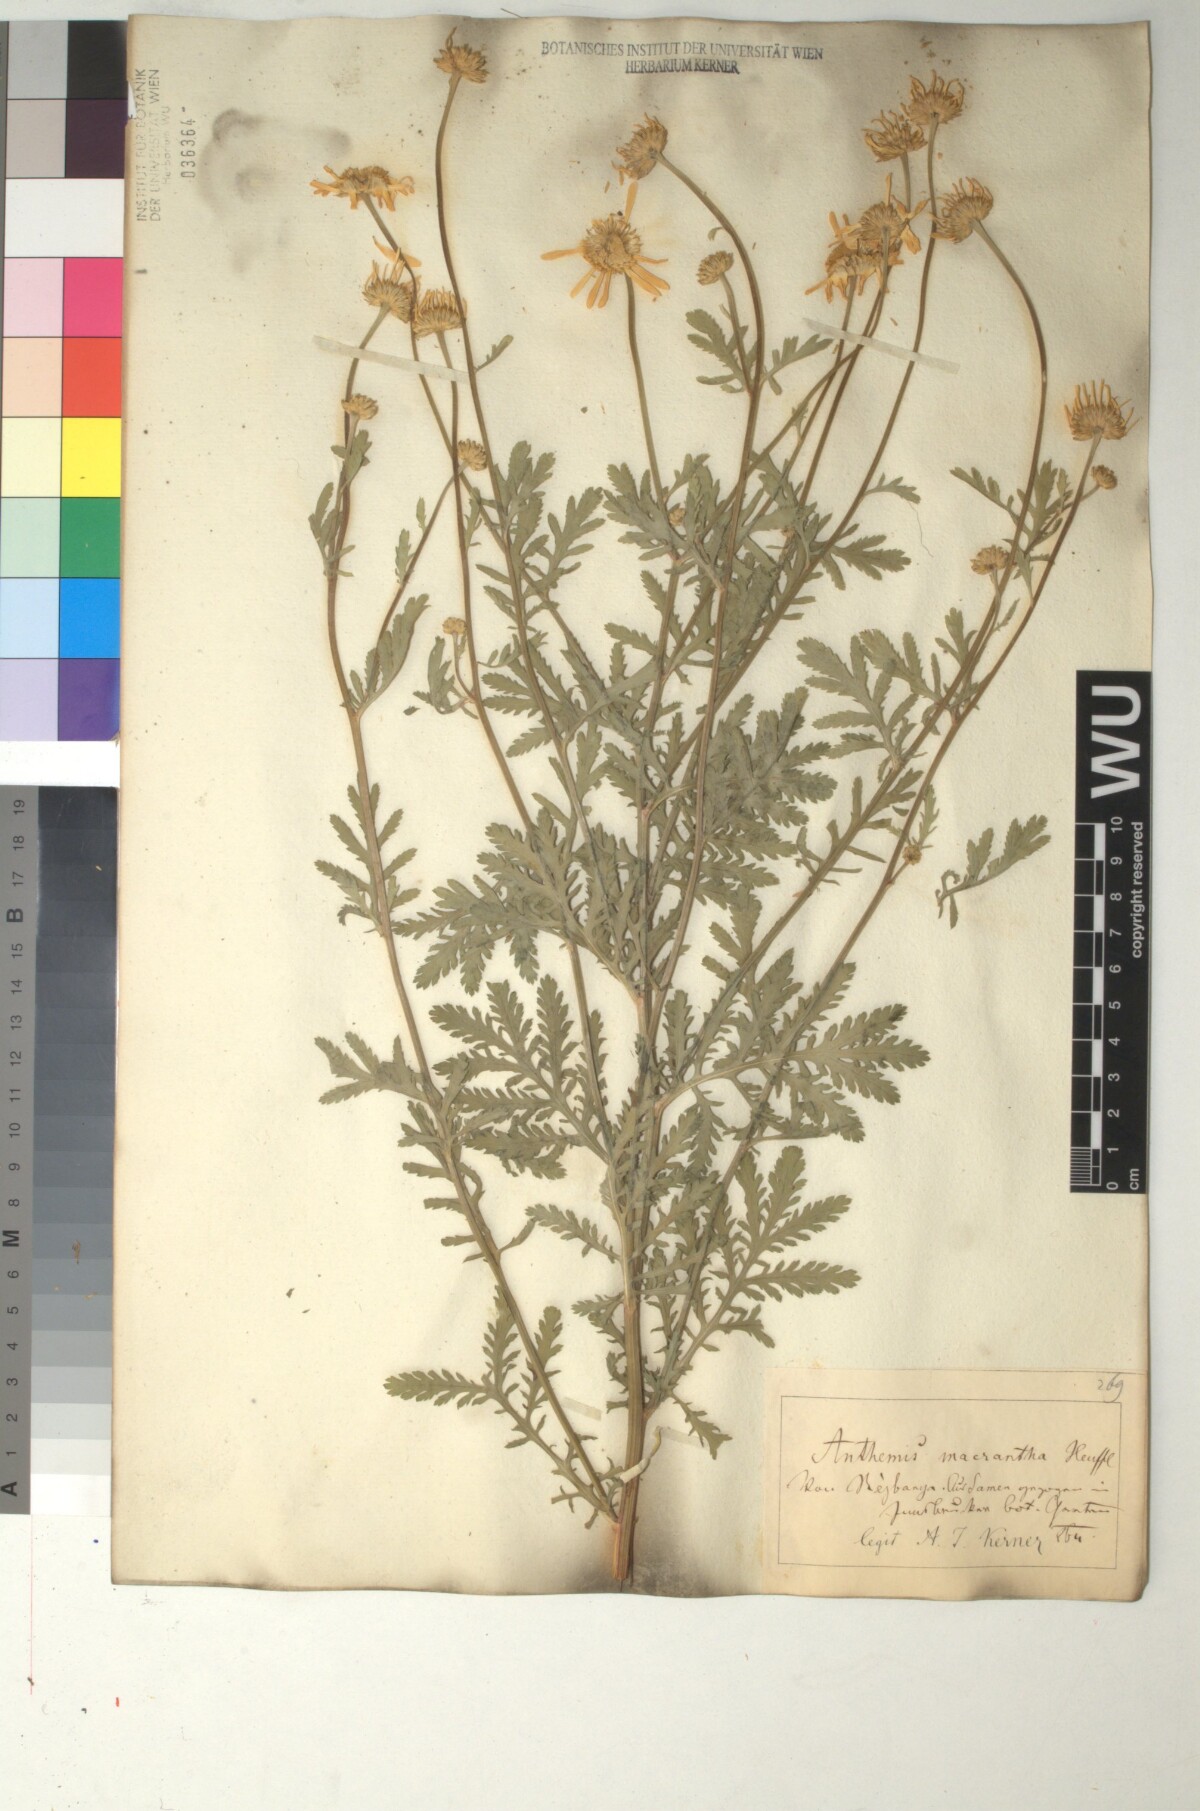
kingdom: Plantae
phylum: Tracheophyta
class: Magnoliopsida
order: Asterales
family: Asteraceae
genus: Cota
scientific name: Cota macrantha
